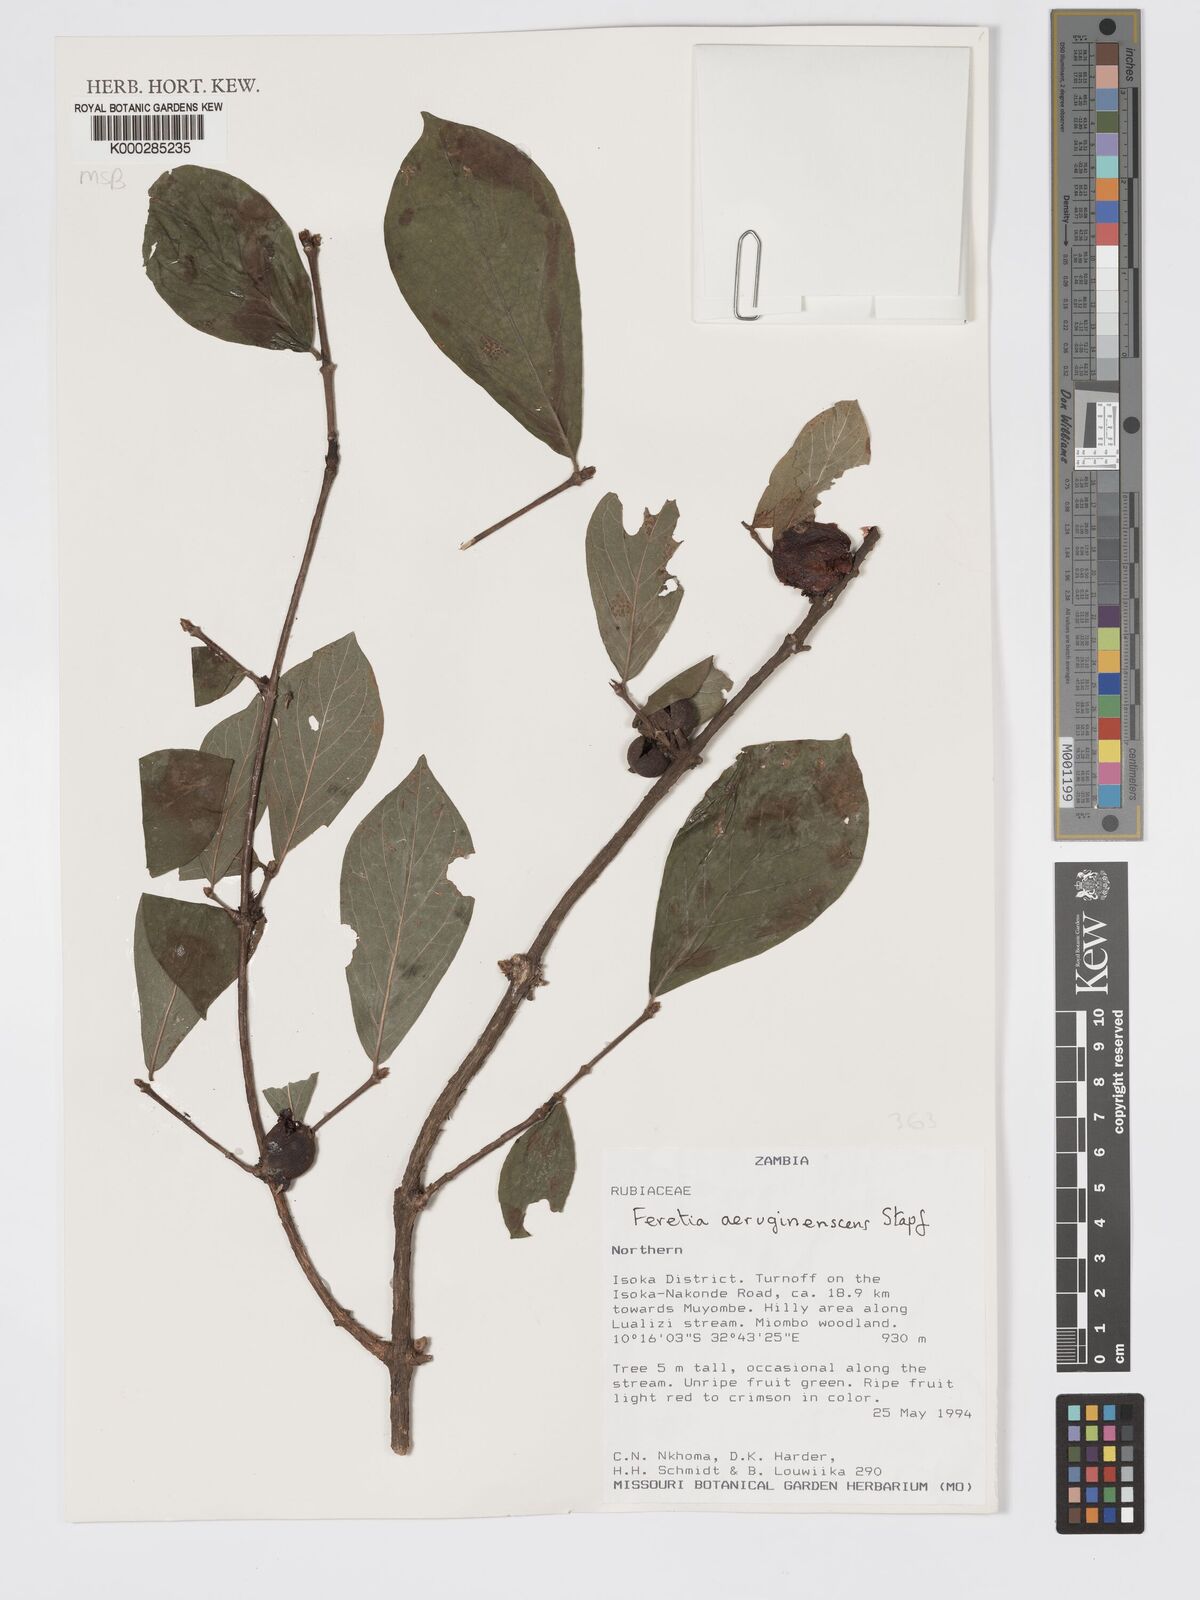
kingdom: Plantae
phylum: Tracheophyta
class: Magnoliopsida
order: Gentianales
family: Rubiaceae
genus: Feretia
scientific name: Feretia aeruginescens
